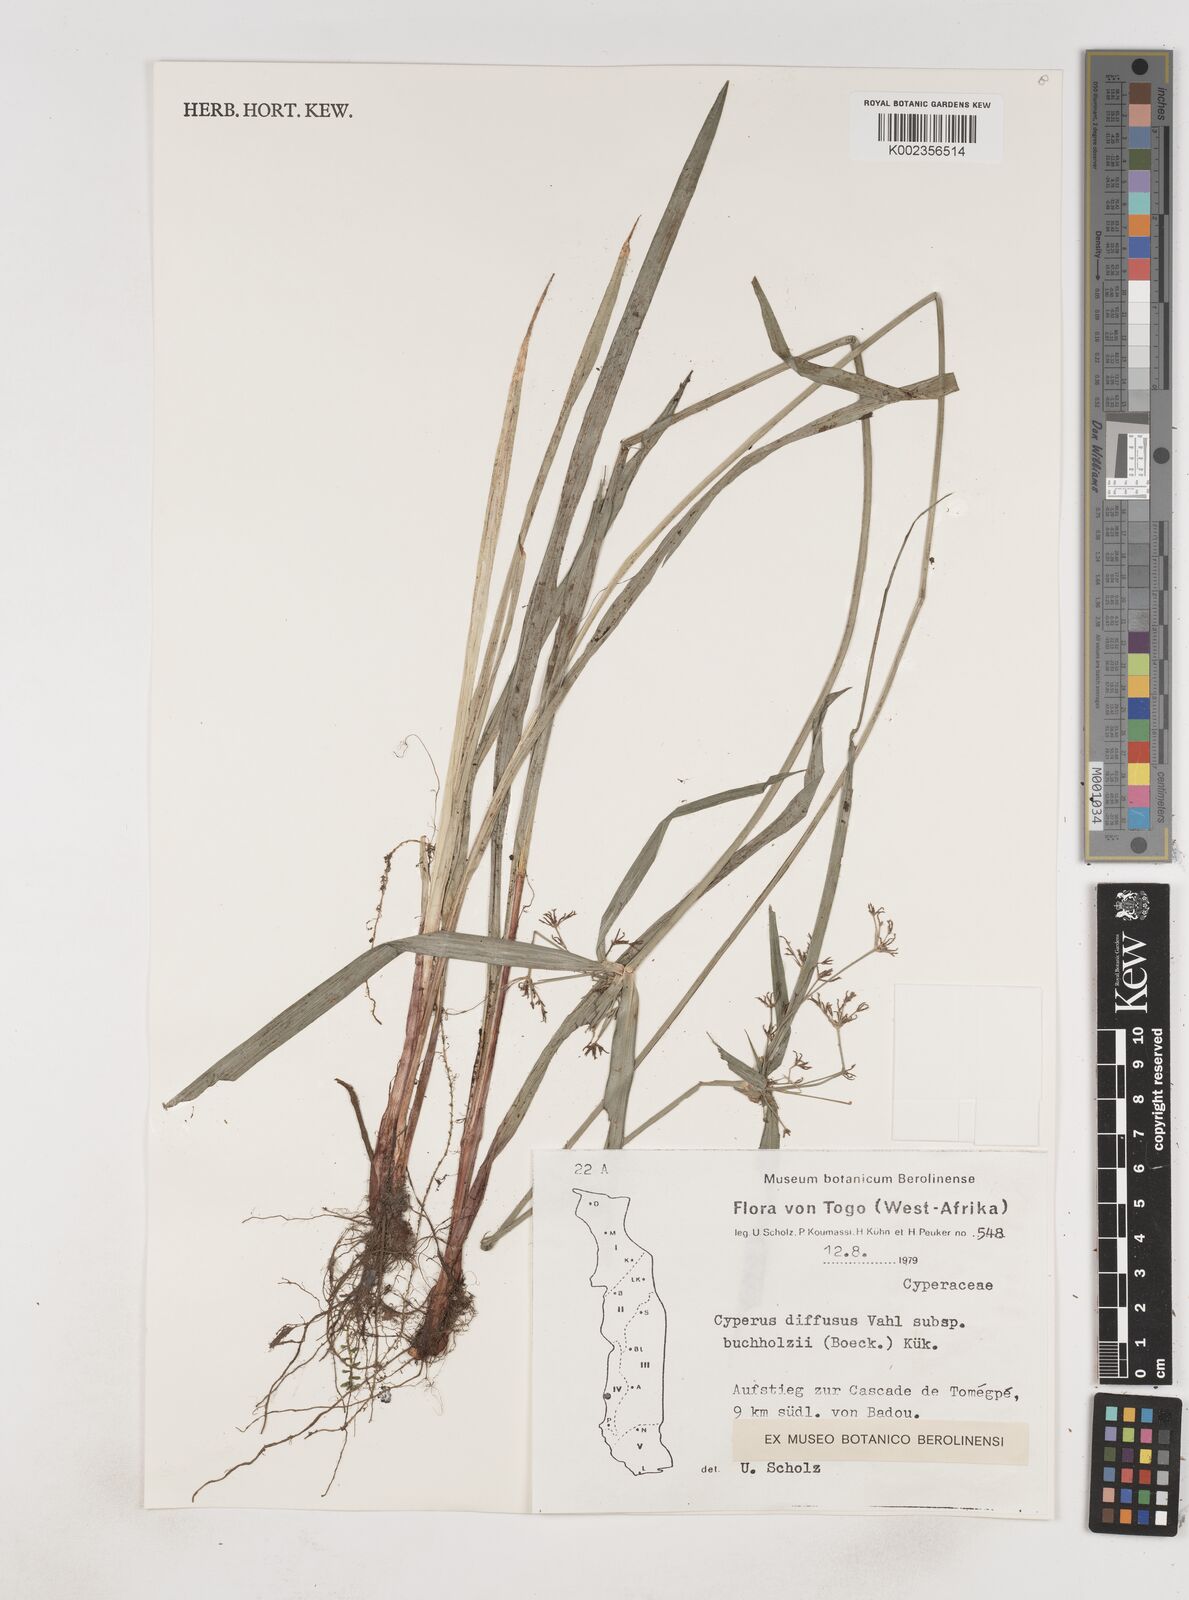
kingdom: Plantae
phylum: Tracheophyta
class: Liliopsida
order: Poales
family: Cyperaceae
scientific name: Cyperaceae
